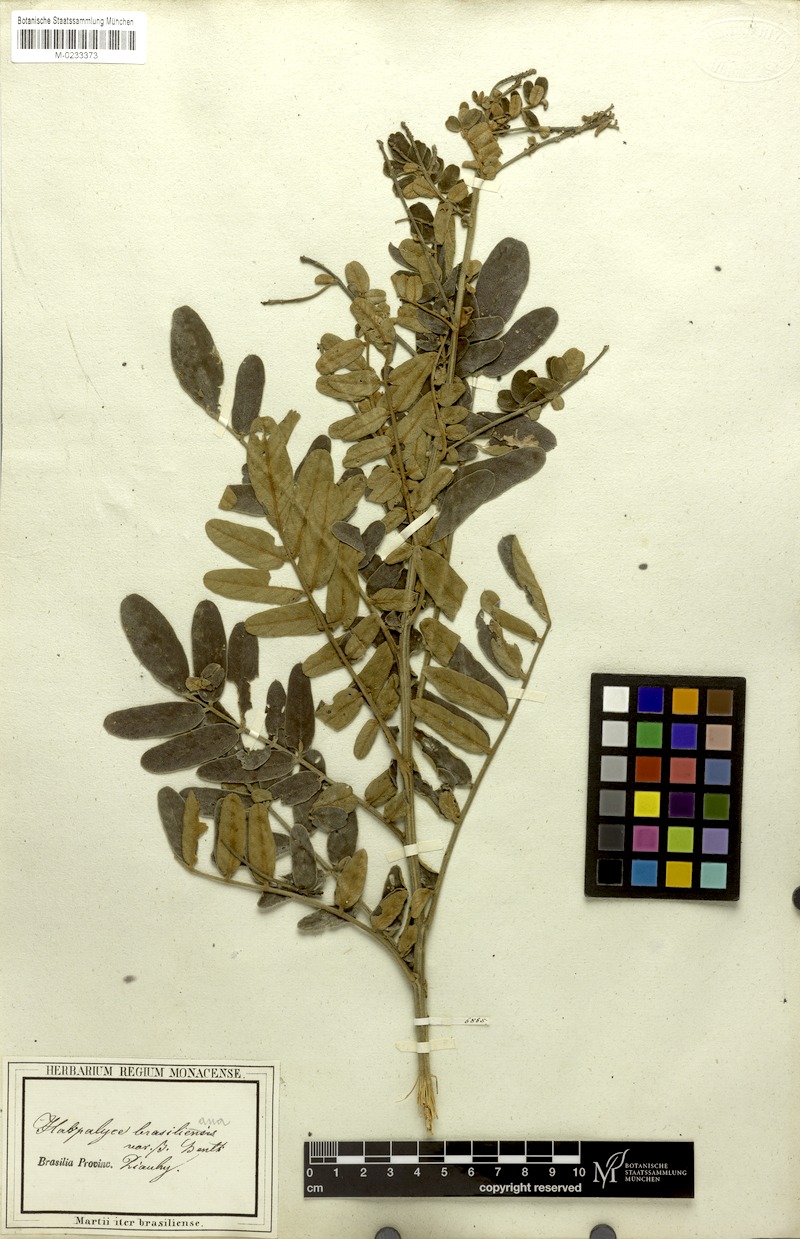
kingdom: Plantae
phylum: Tracheophyta
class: Magnoliopsida
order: Fabales
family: Fabaceae
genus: Harpalyce
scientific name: Harpalyce brasiliana
